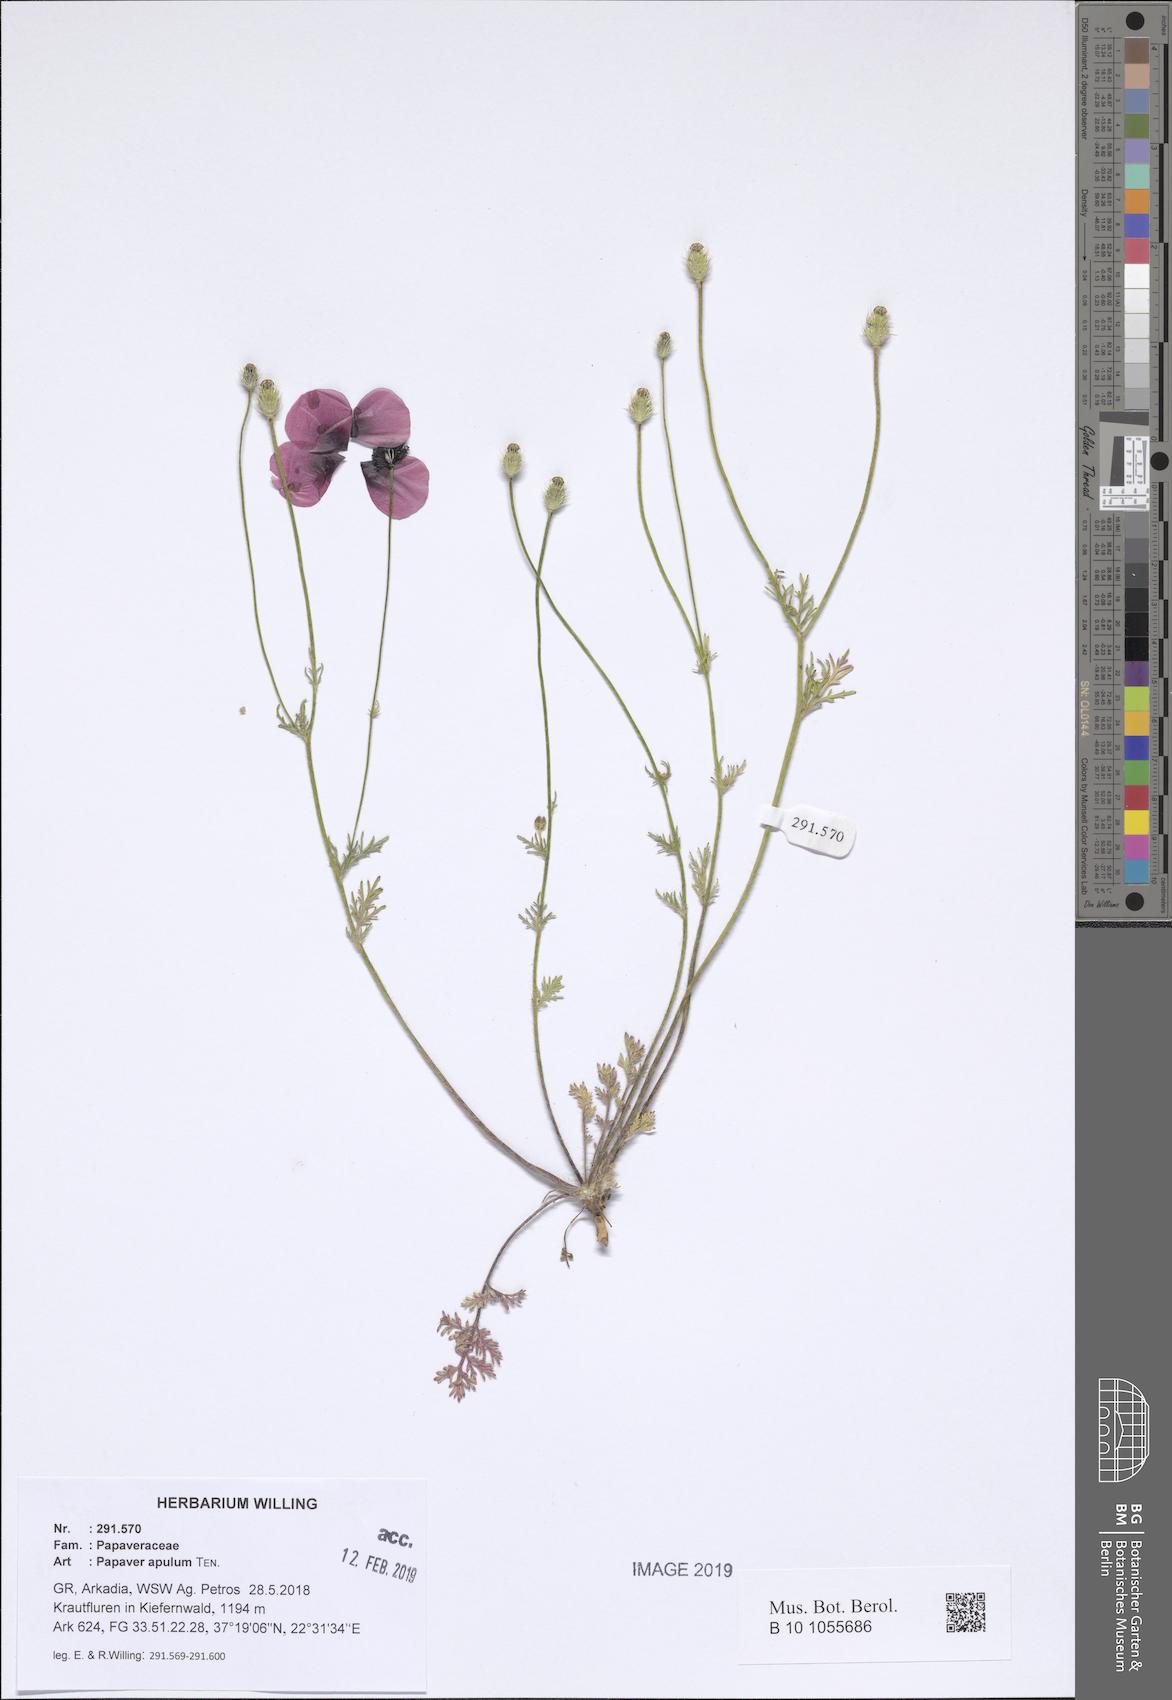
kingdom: Plantae
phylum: Tracheophyta
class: Magnoliopsida
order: Ranunculales
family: Papaveraceae
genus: Roemeria
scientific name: Roemeria apula
